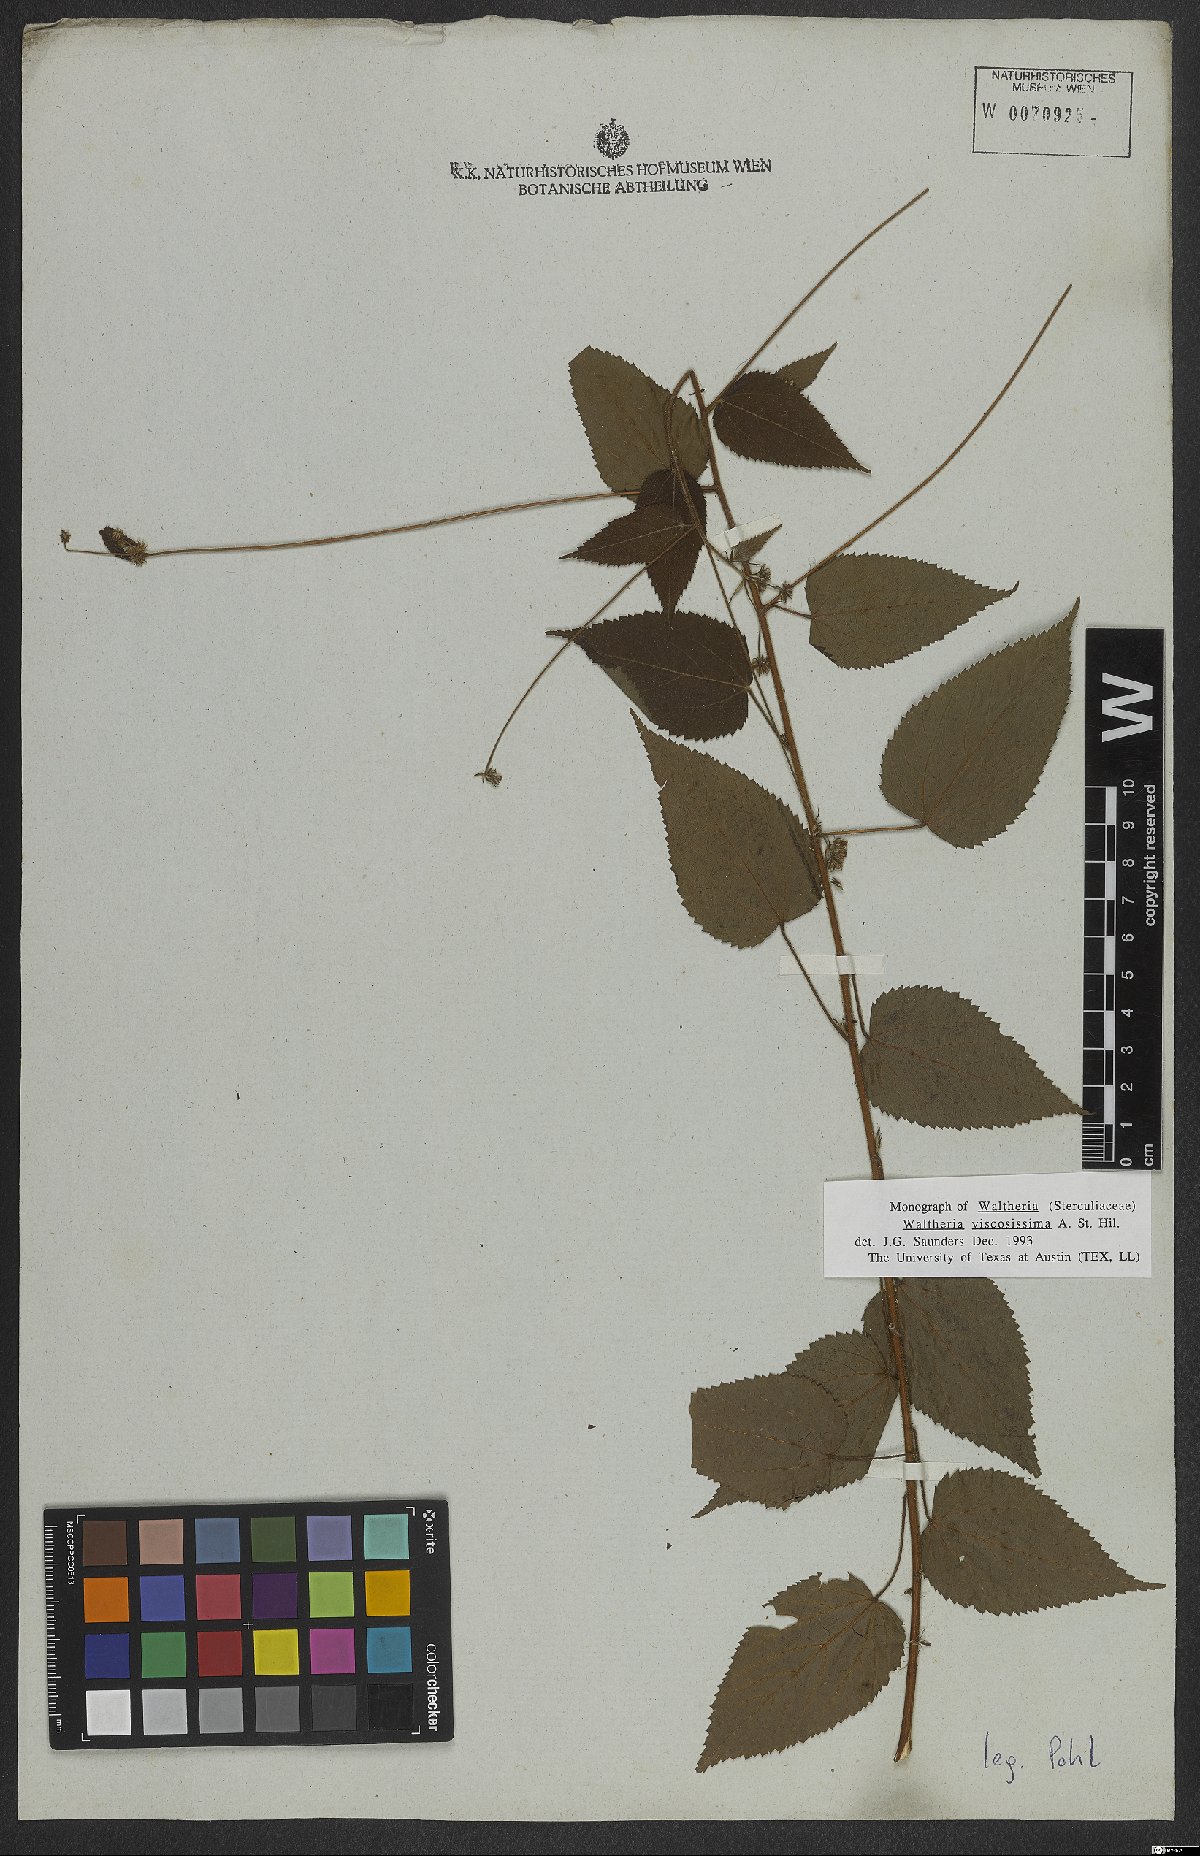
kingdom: Plantae
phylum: Tracheophyta
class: Magnoliopsida
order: Malvales
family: Malvaceae
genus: Waltheria
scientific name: Waltheria viscosissima
